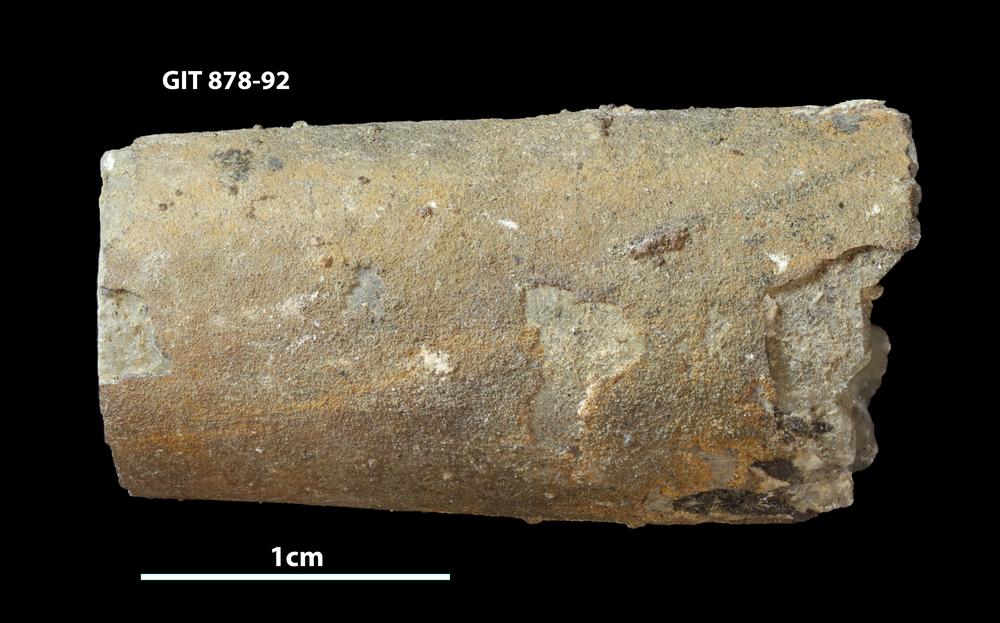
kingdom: Animalia
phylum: Mollusca
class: Cephalopoda
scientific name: Cephalopoda
